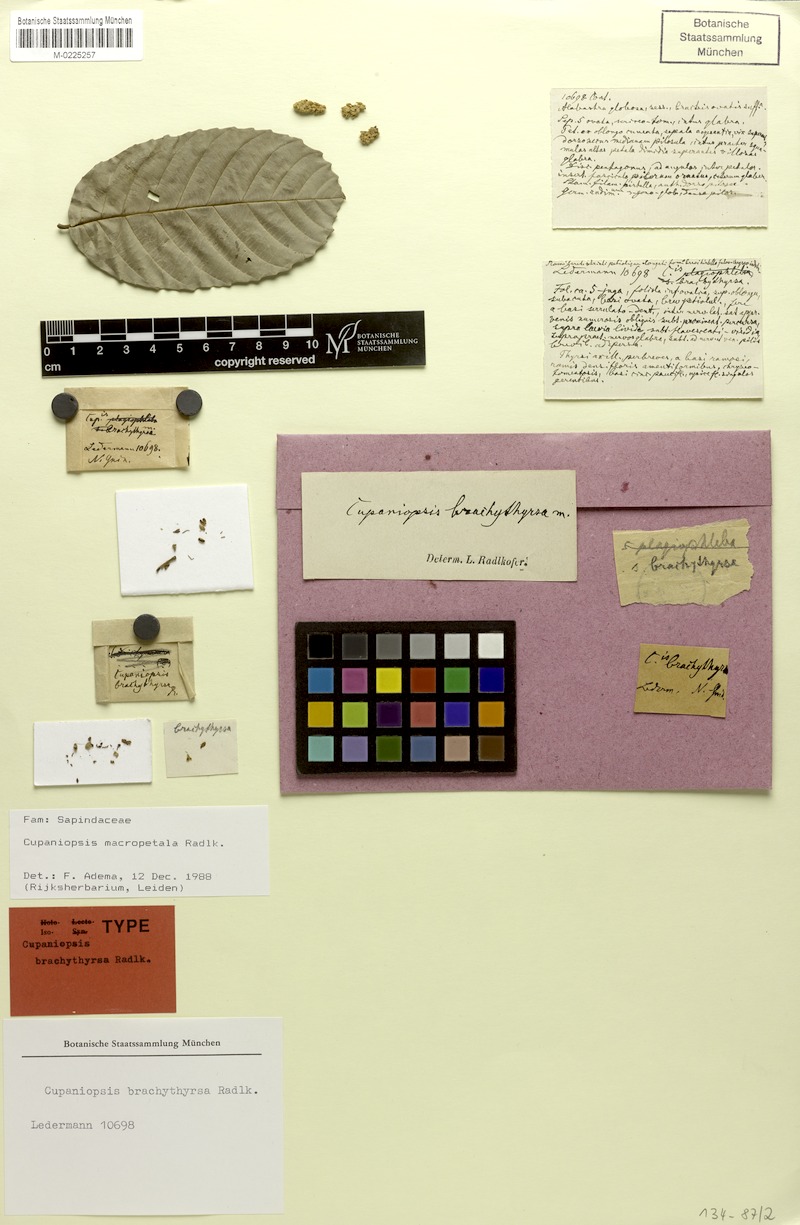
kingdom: Plantae
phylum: Tracheophyta
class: Magnoliopsida
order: Sapindales
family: Sapindaceae
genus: Cupaniopsis
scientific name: Cupaniopsis macropetala
